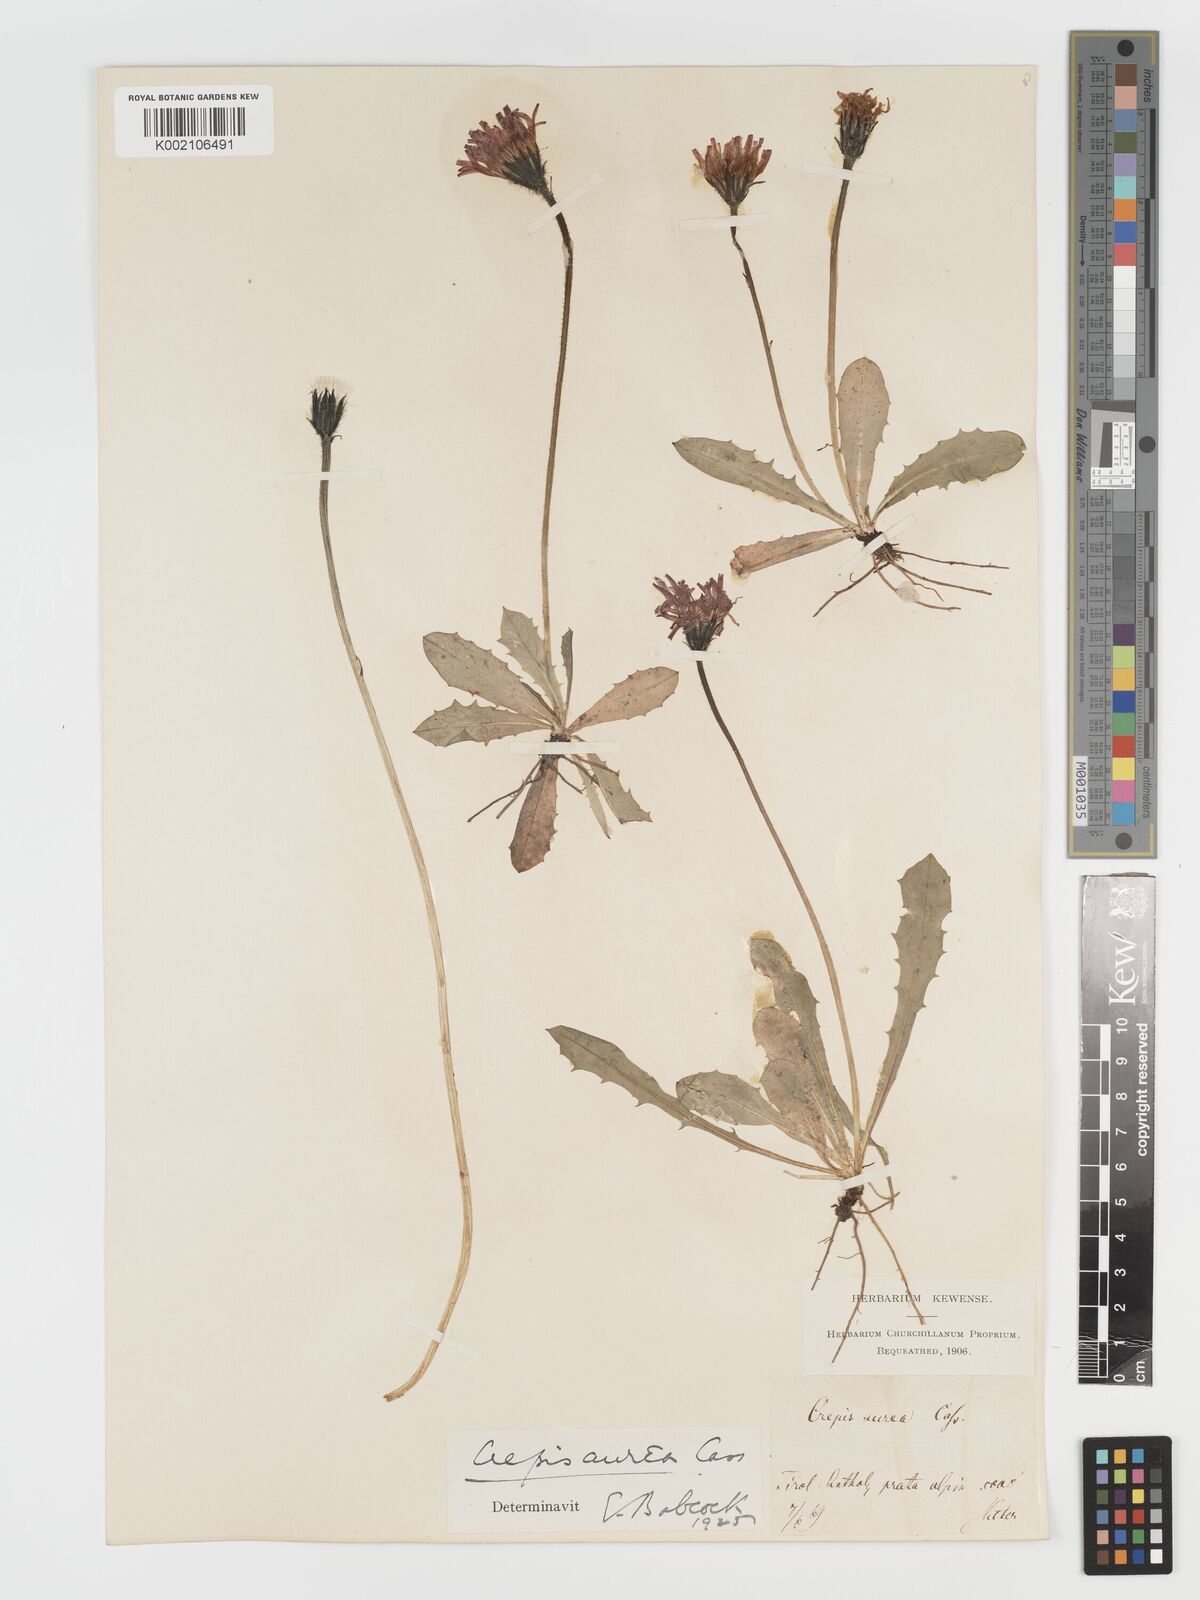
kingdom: Plantae
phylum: Tracheophyta
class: Magnoliopsida
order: Asterales
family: Asteraceae
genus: Crepis
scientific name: Crepis aurea
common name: Golden hawk's-beard
